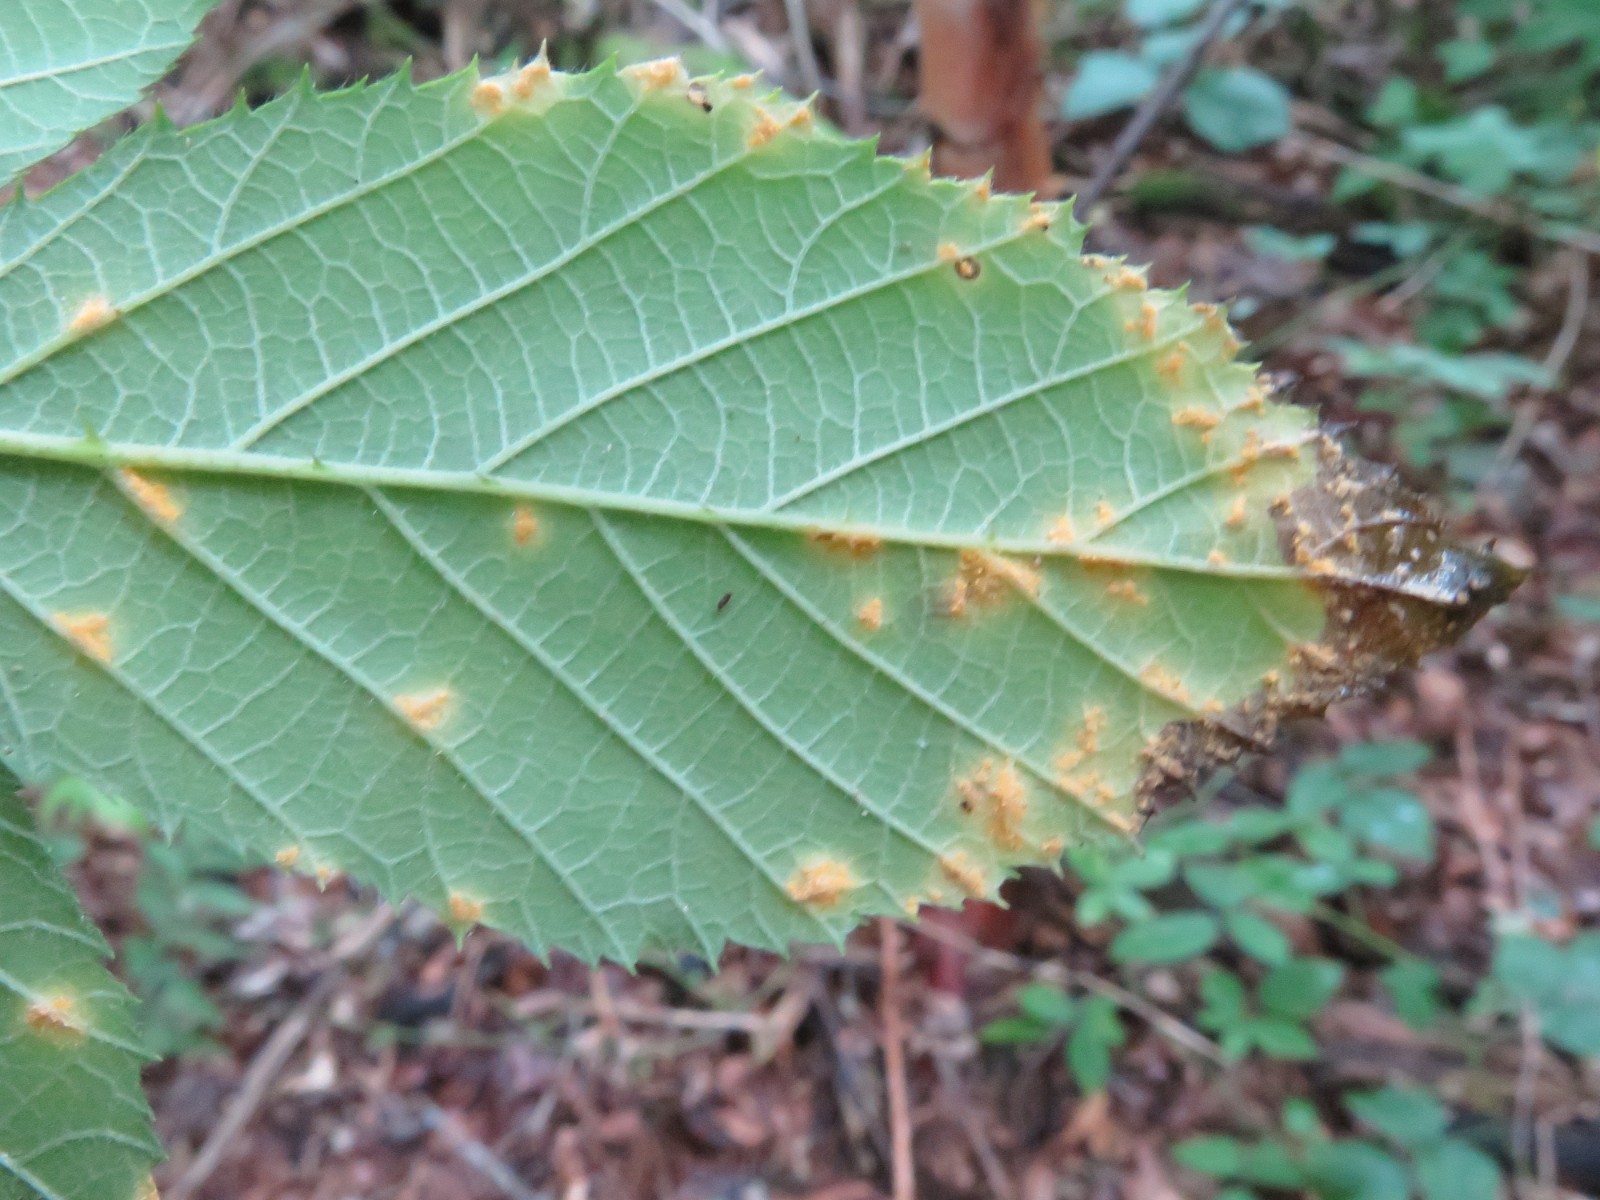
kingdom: Fungi
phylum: Basidiomycota
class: Pucciniomycetes
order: Pucciniales
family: Phragmidiaceae
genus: Phragmidium
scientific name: Phragmidium violaceum
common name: violet flercellerust
